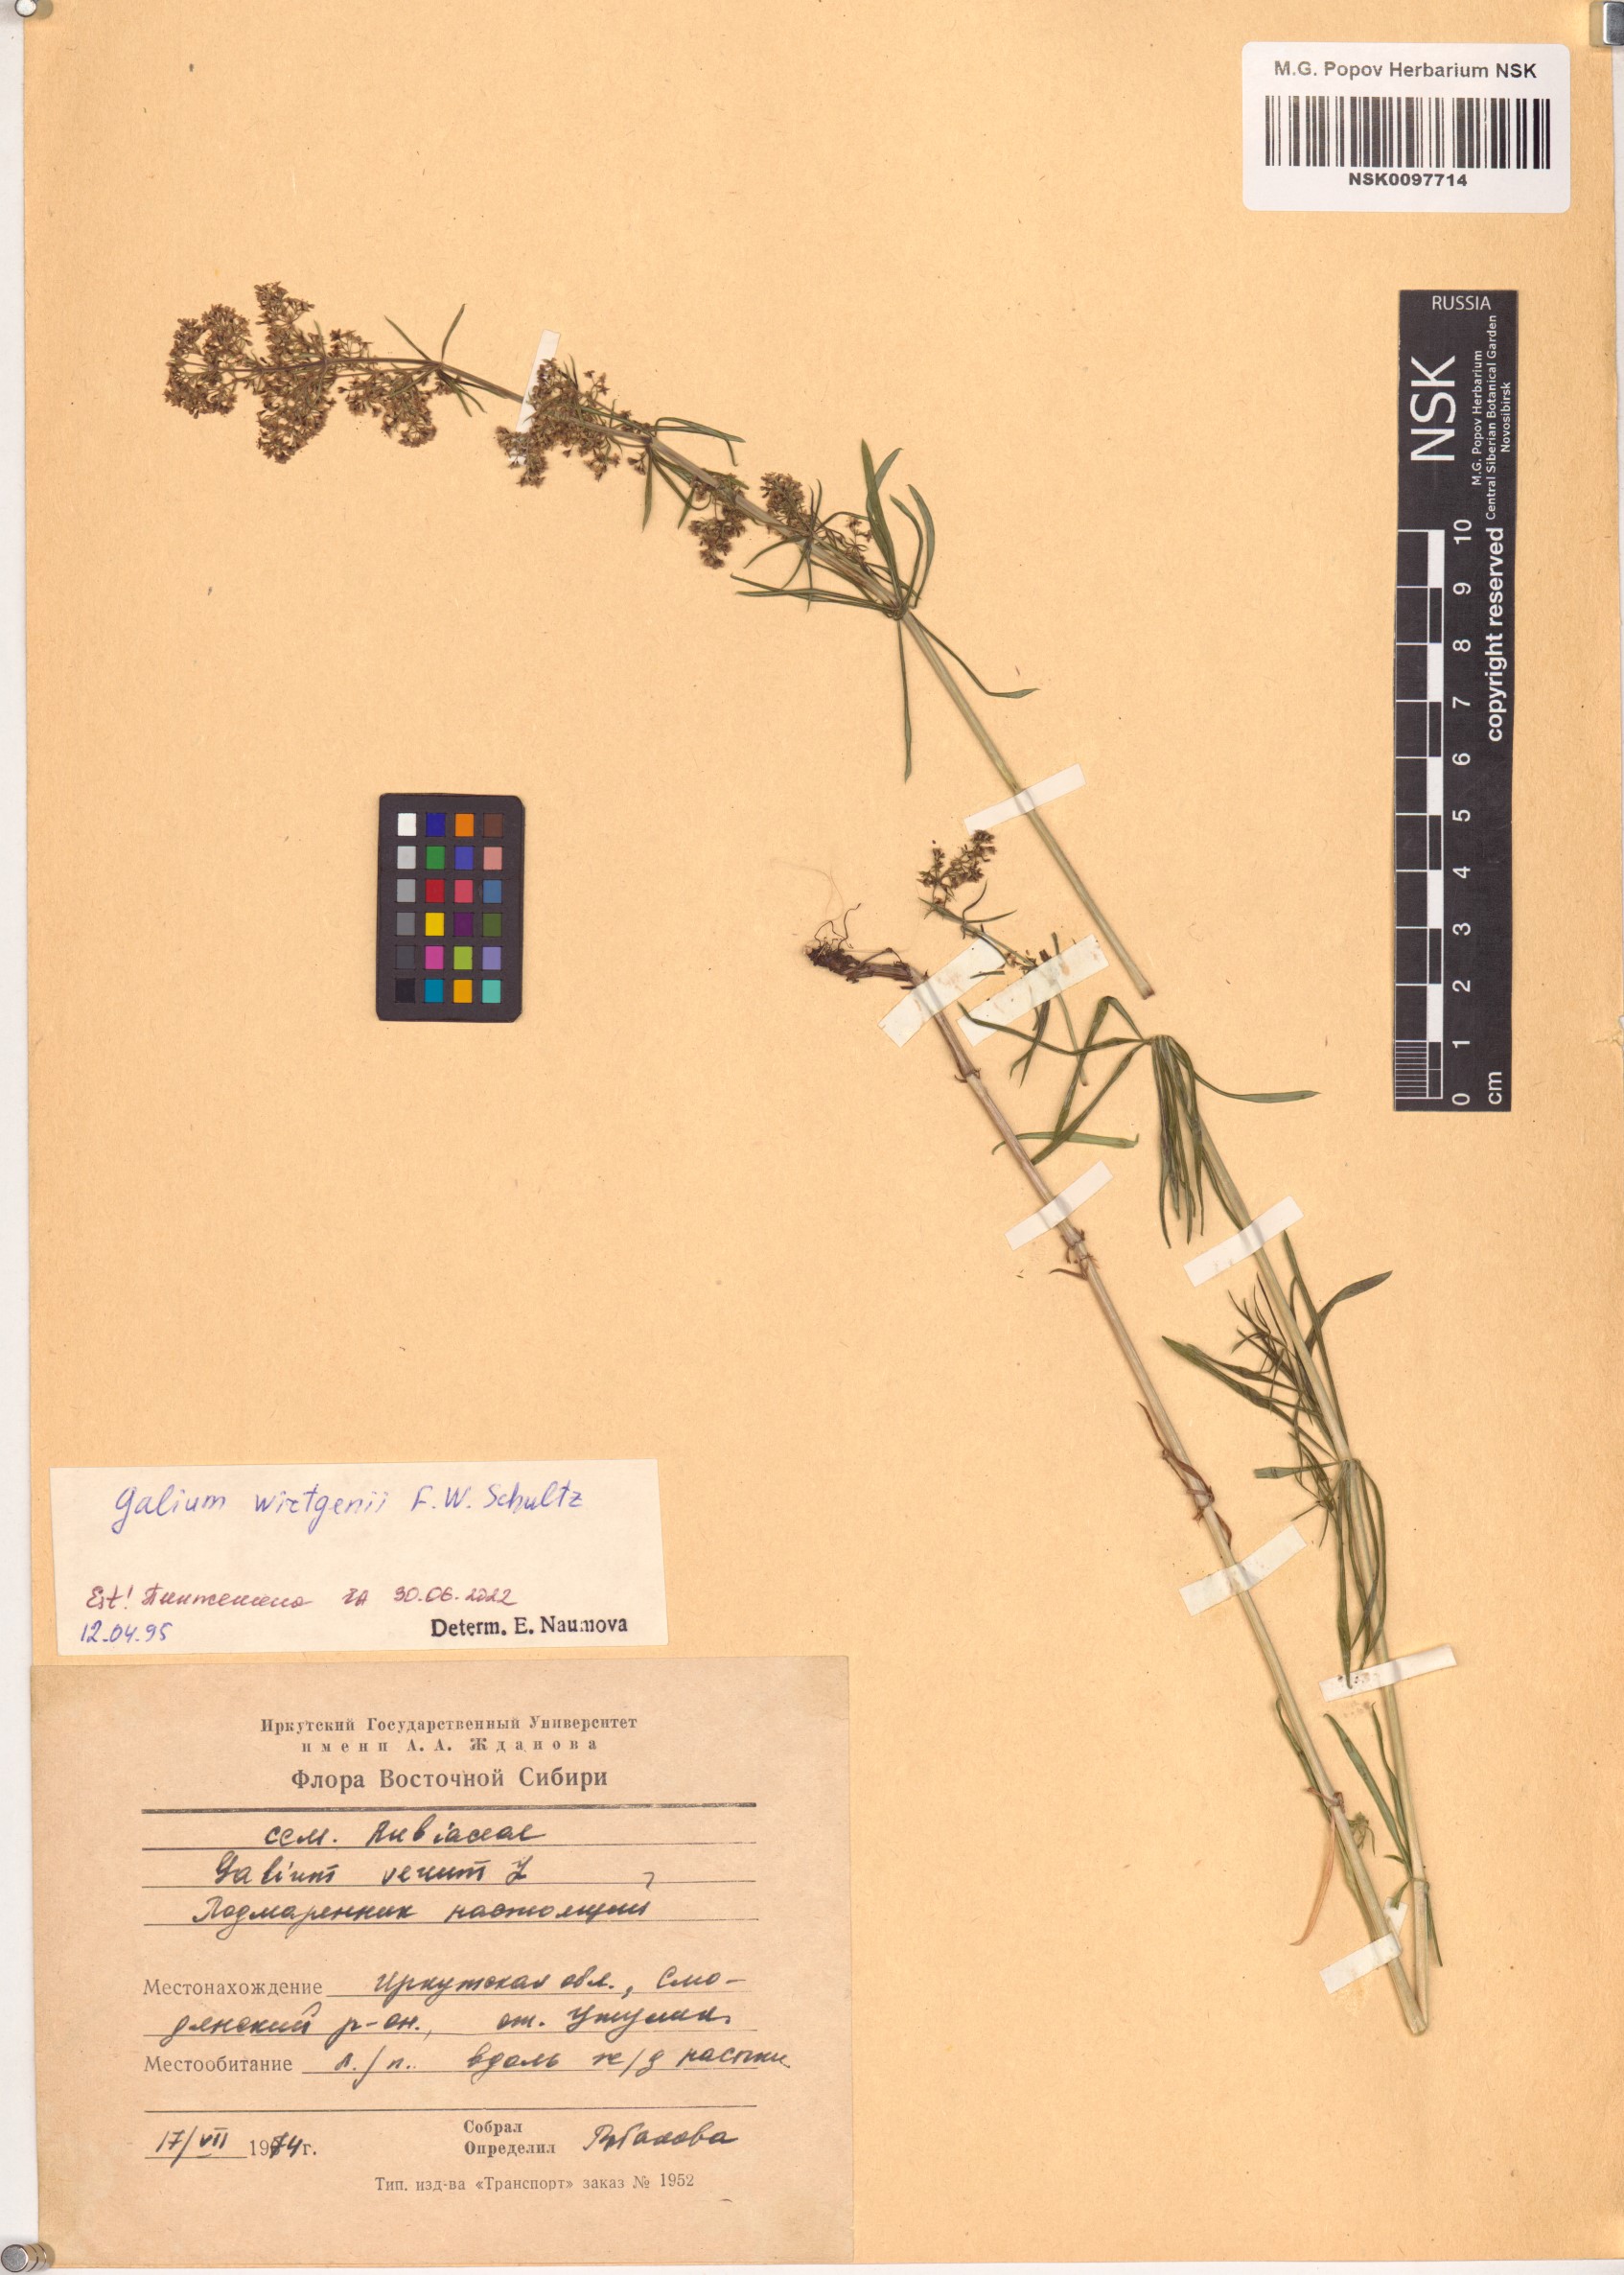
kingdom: Plantae
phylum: Tracheophyta
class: Magnoliopsida
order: Gentianales
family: Rubiaceae
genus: Galium
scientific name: Galium verum
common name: Lady's bedstraw
